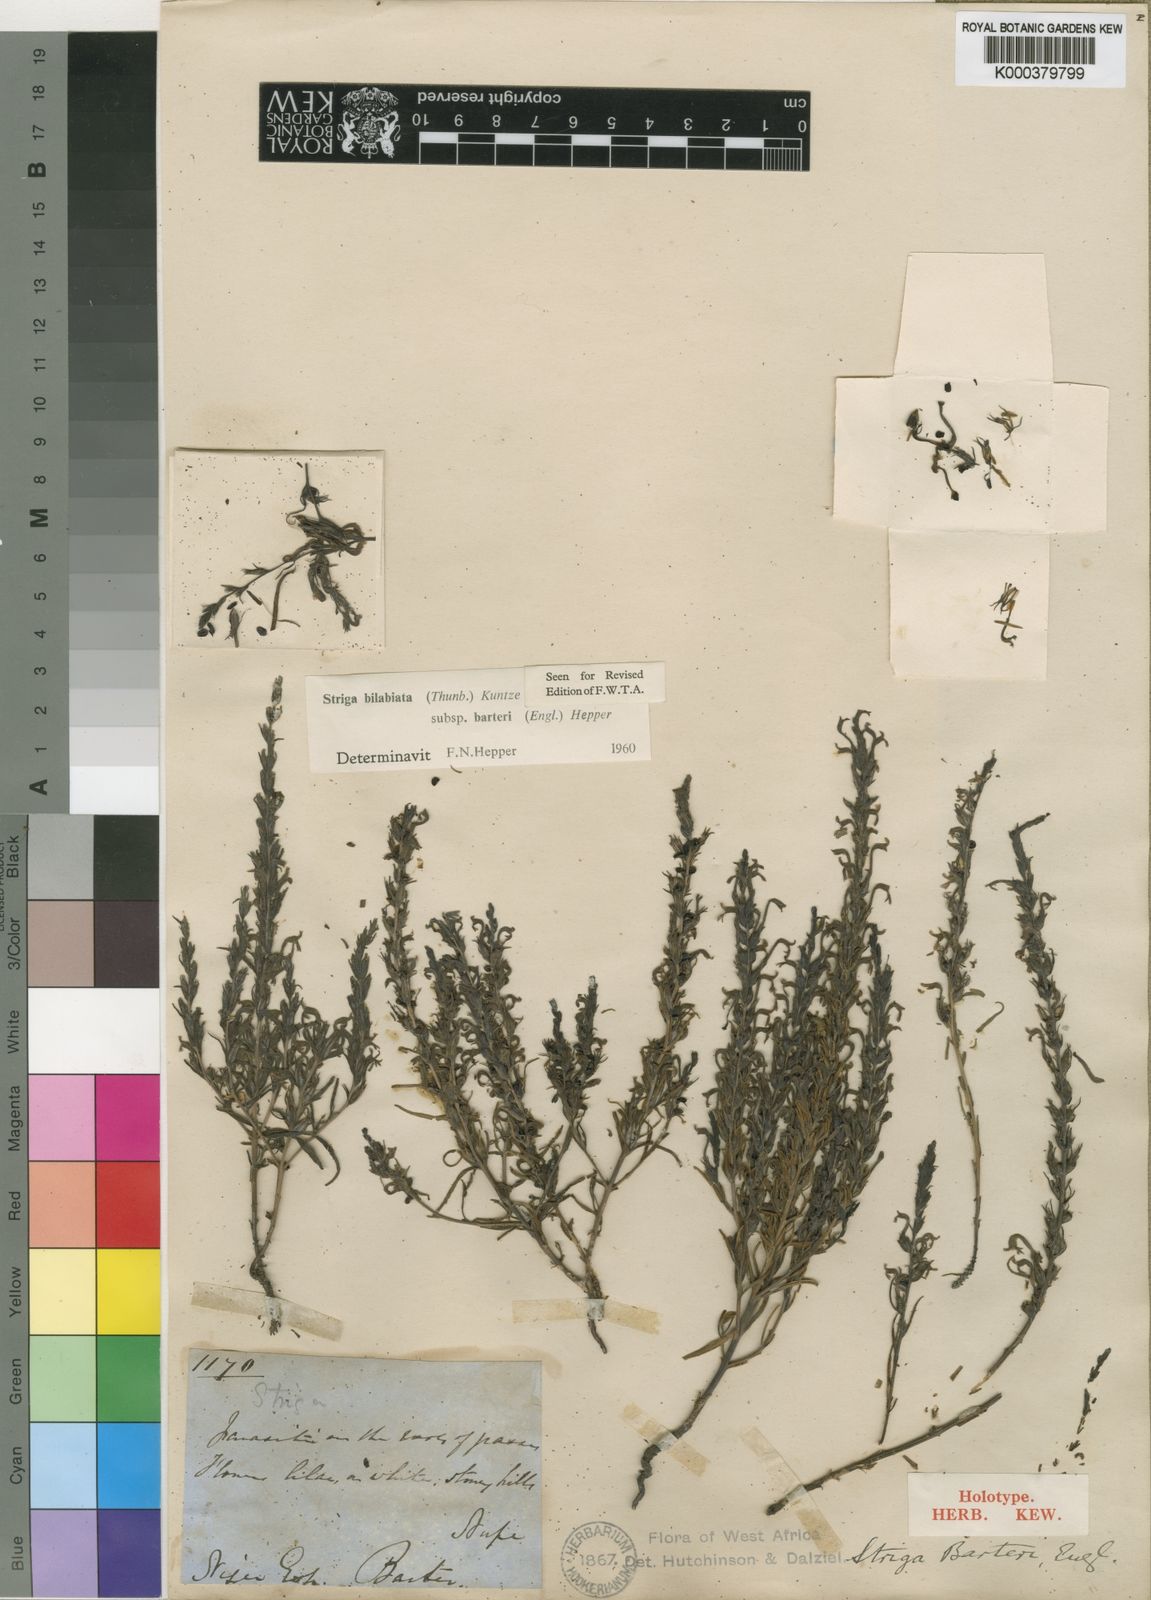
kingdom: Plantae
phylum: Tracheophyta
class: Magnoliopsida
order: Lamiales
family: Orobanchaceae
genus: Striga
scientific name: Striga bilabiata
